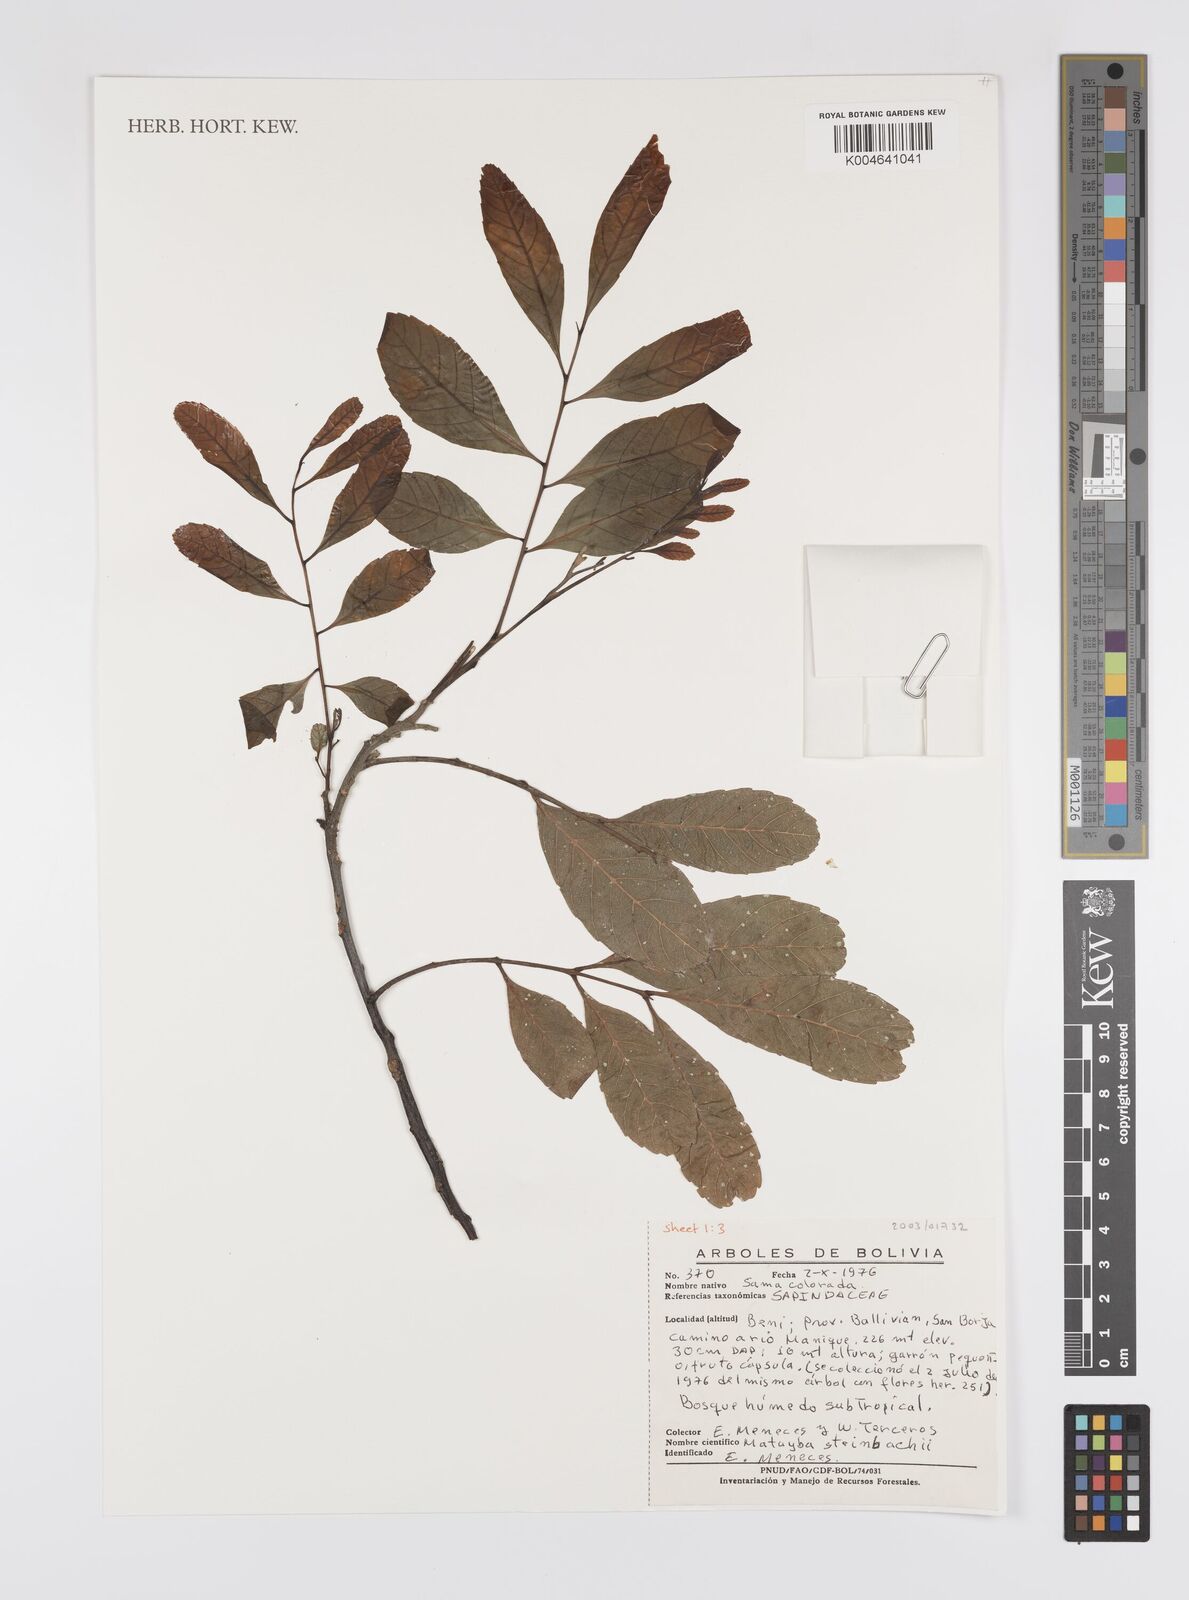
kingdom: Plantae
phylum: Tracheophyta
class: Magnoliopsida
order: Sapindales
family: Sapindaceae
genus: Matayba
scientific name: Matayba guianensis
